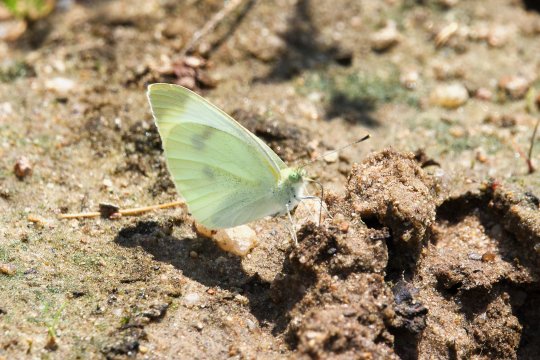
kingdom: Animalia
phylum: Arthropoda
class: Insecta
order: Lepidoptera
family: Pieridae
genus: Pieris
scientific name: Pieris rapae
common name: Cabbage White
